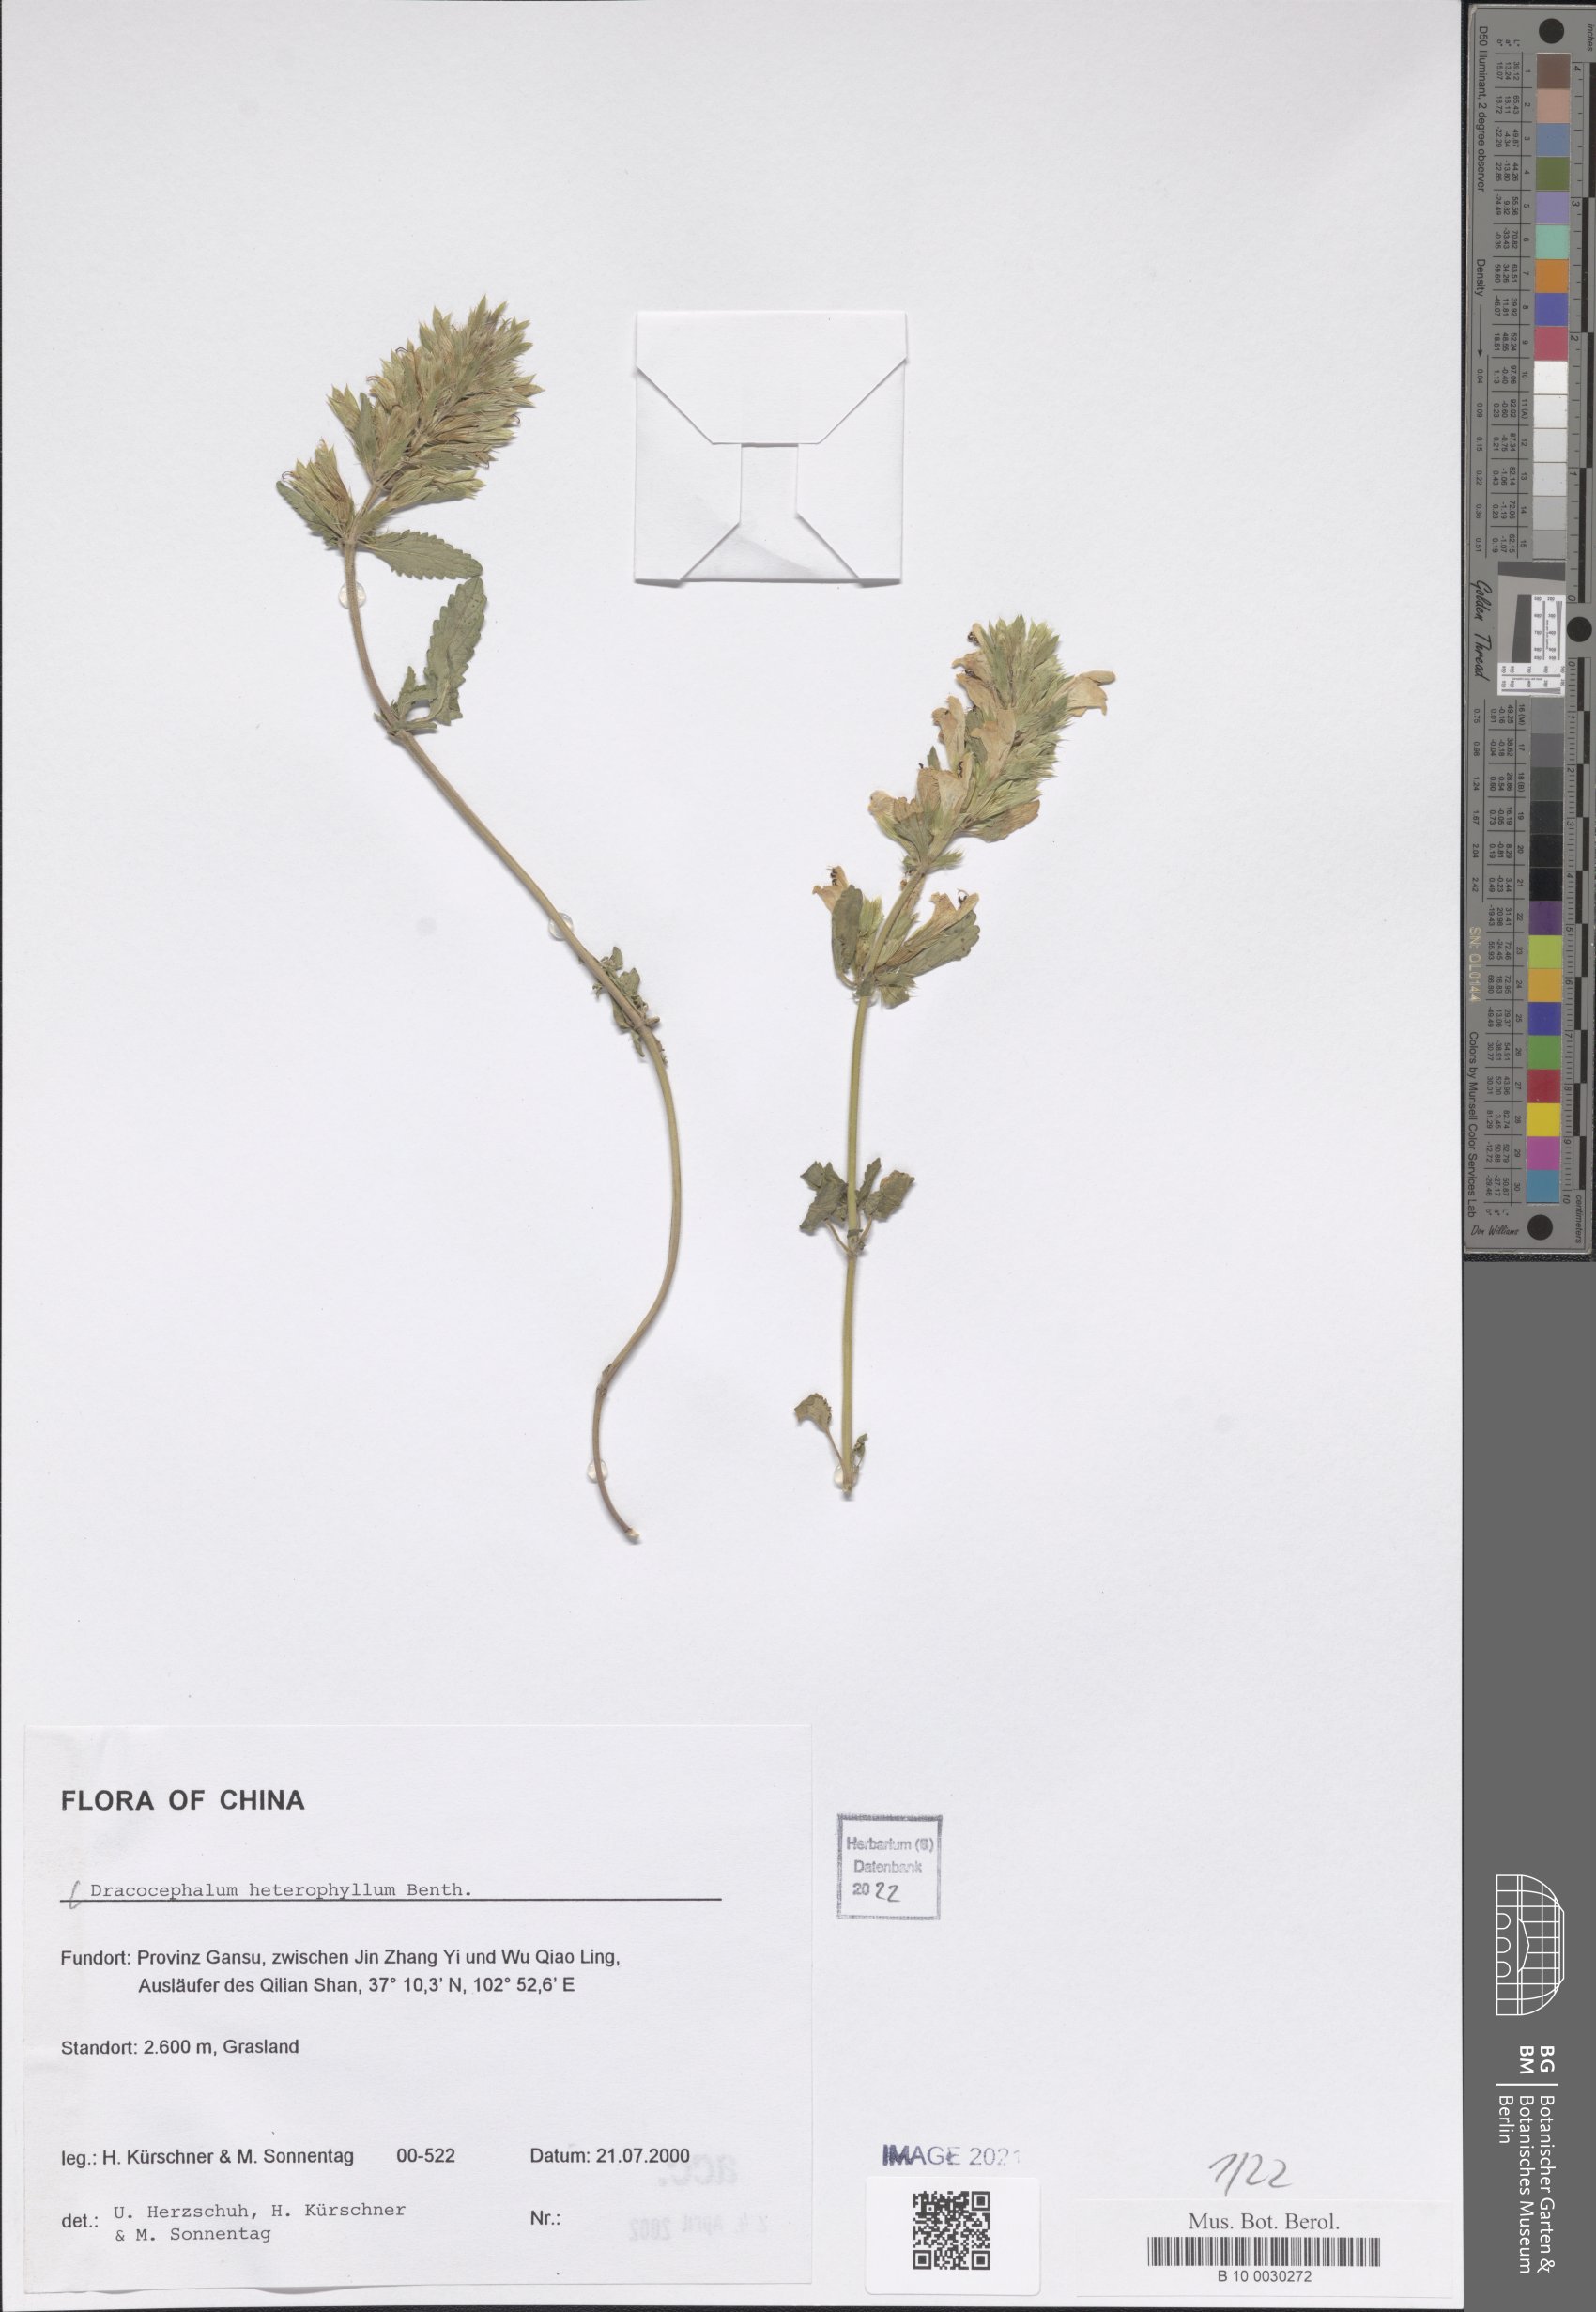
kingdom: Plantae
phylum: Tracheophyta
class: Magnoliopsida
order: Lamiales
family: Lamiaceae
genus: Dracocephalum
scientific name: Dracocephalum heterophyllum
